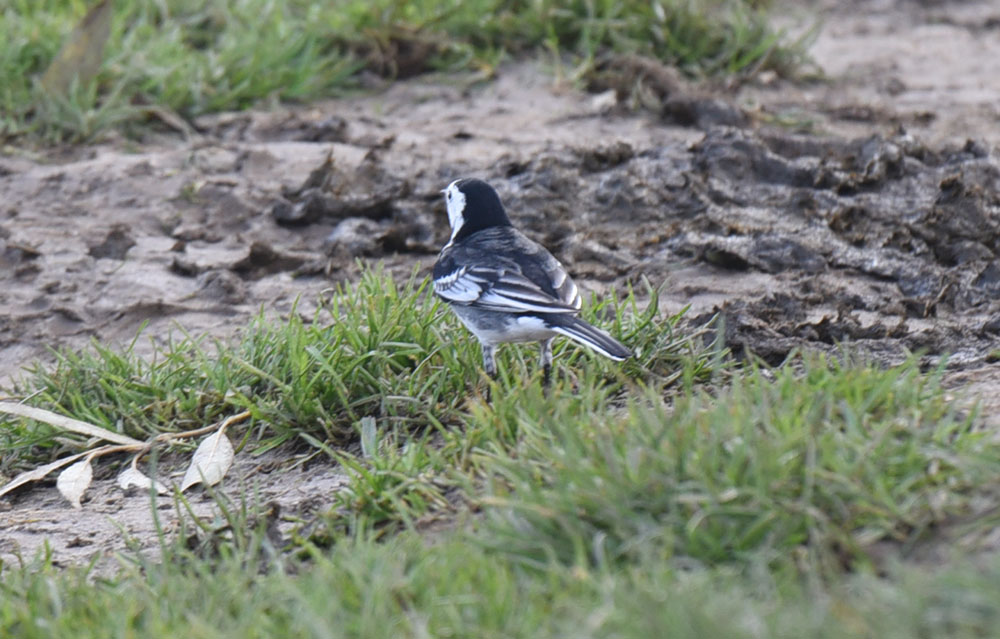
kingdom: Animalia
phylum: Chordata
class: Aves
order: Passeriformes
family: Motacillidae
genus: Motacilla
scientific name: Motacilla alba
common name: White wagtail
